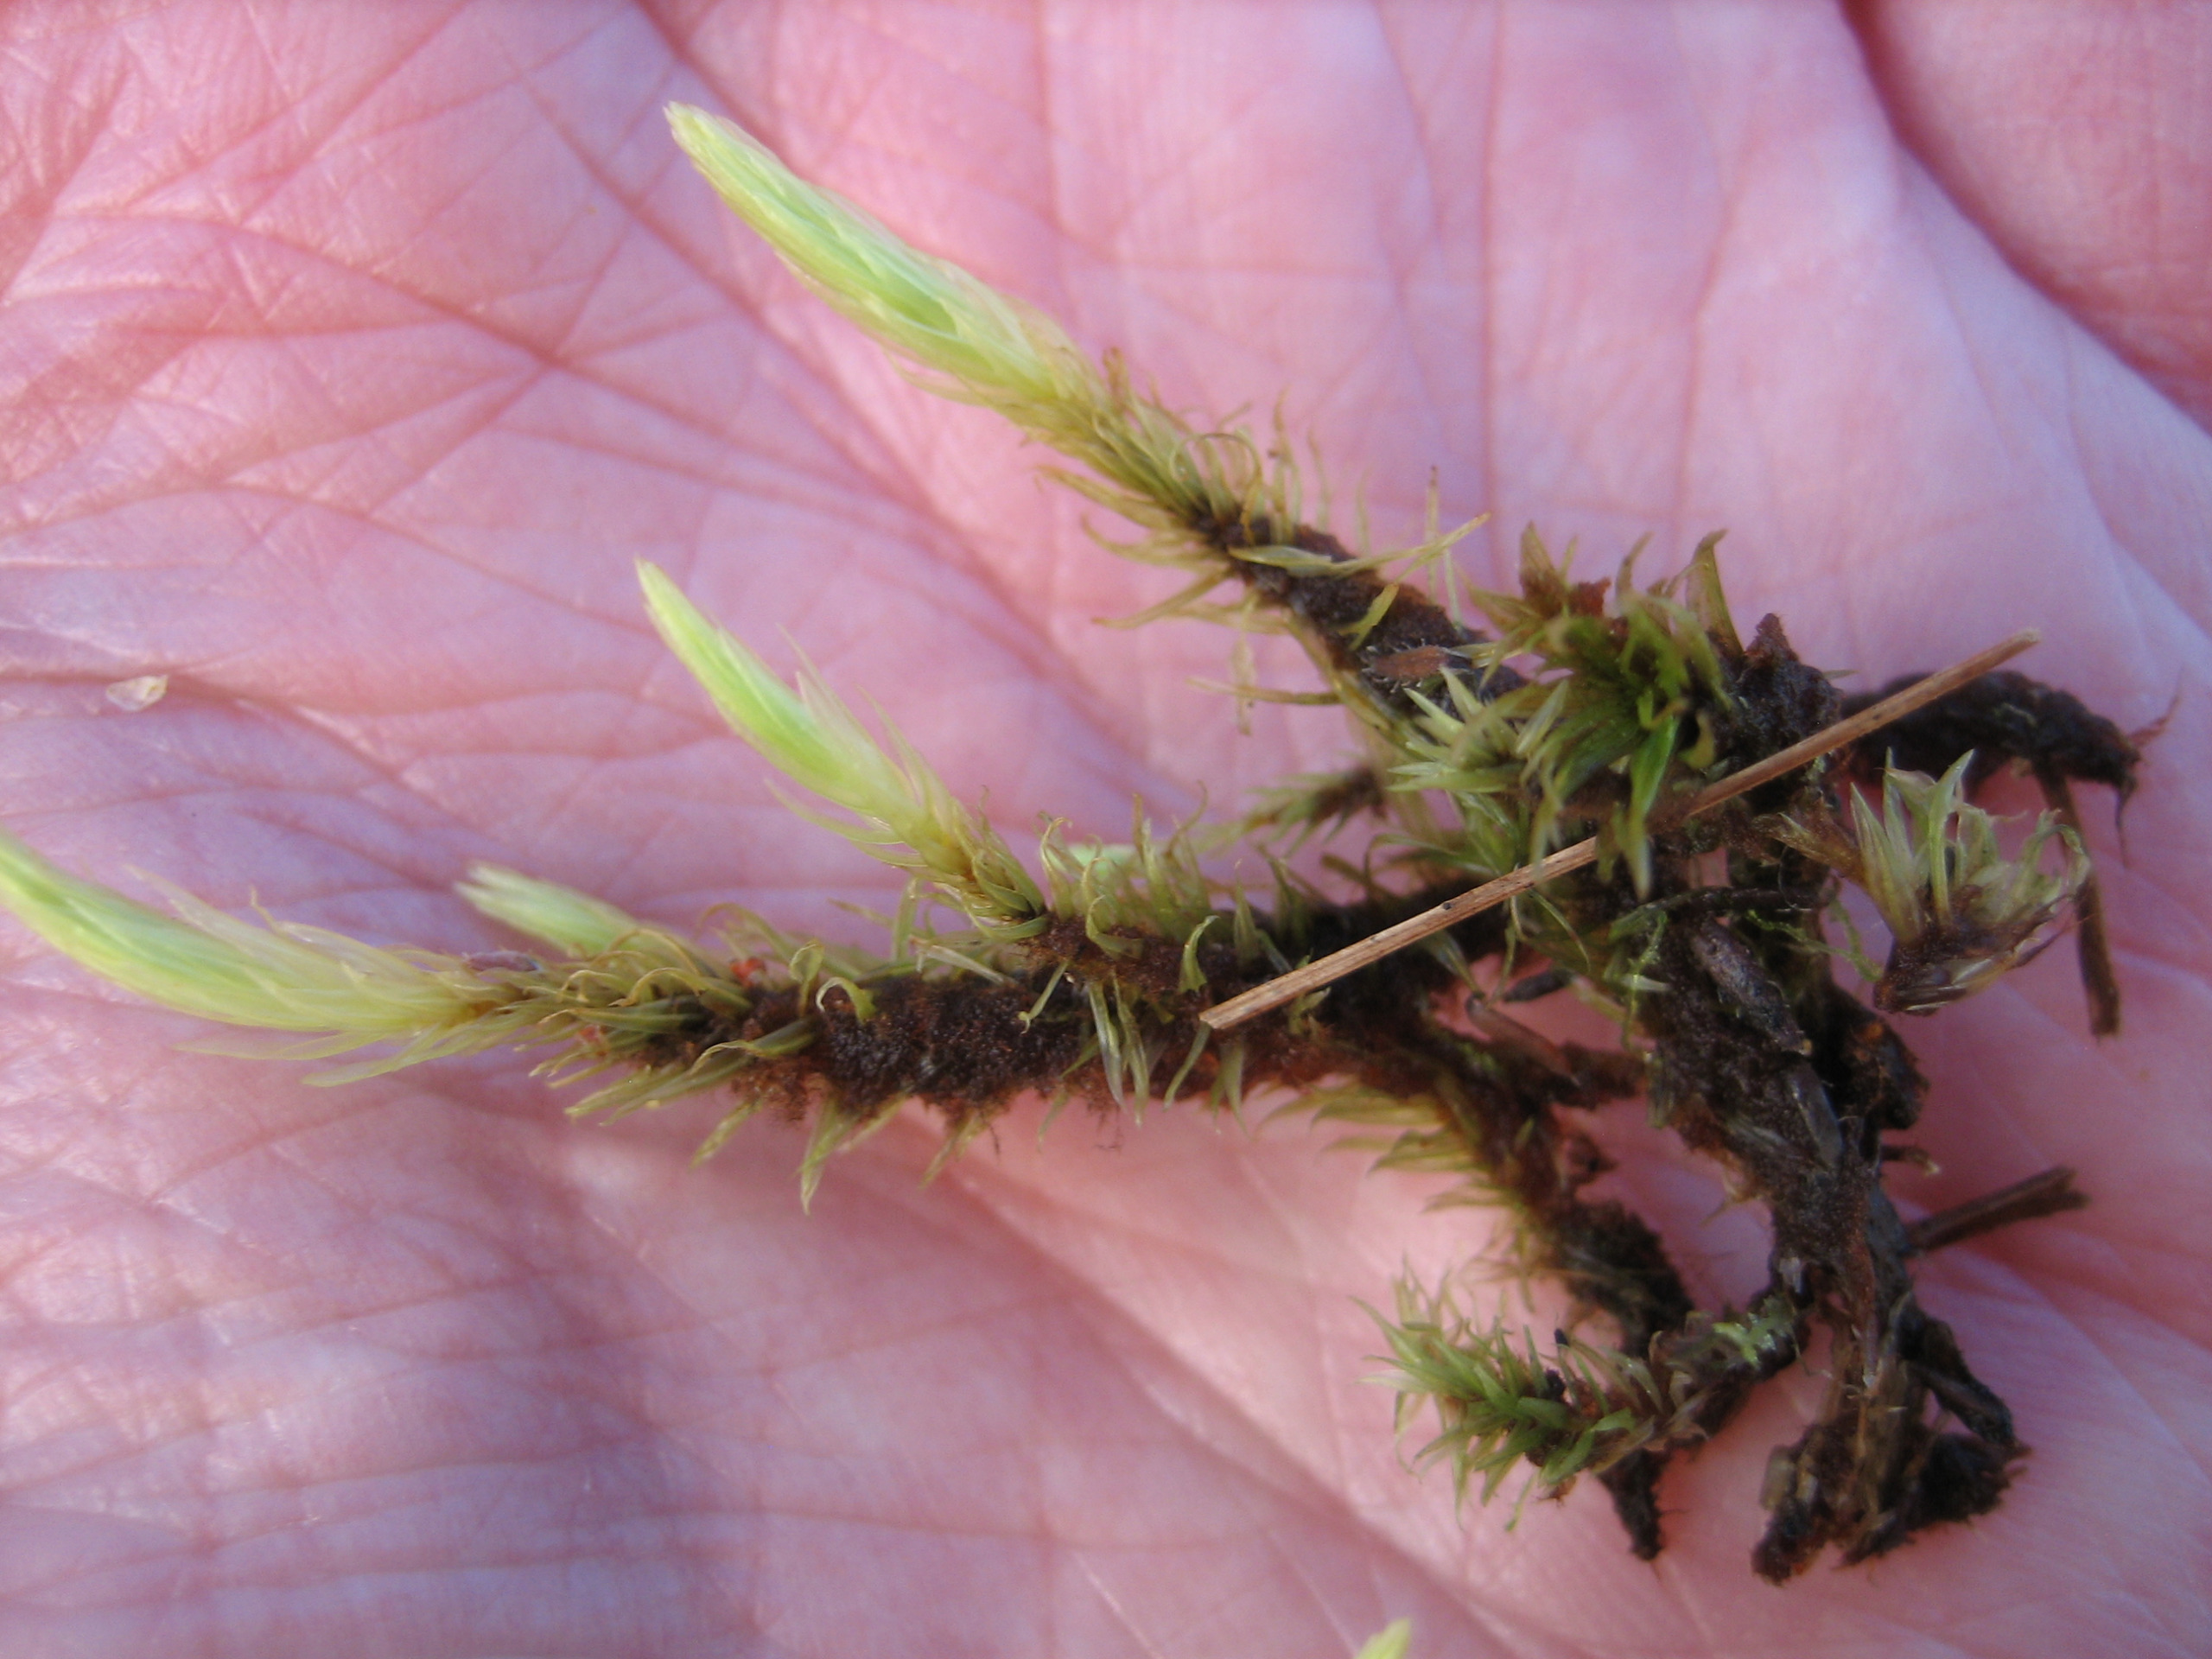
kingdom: Plantae
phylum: Bryophyta
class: Bryopsida
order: Aulacomniales
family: Aulacomniaceae
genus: Aulacomnium
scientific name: Aulacomnium palustre
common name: Almindelig filtmos
